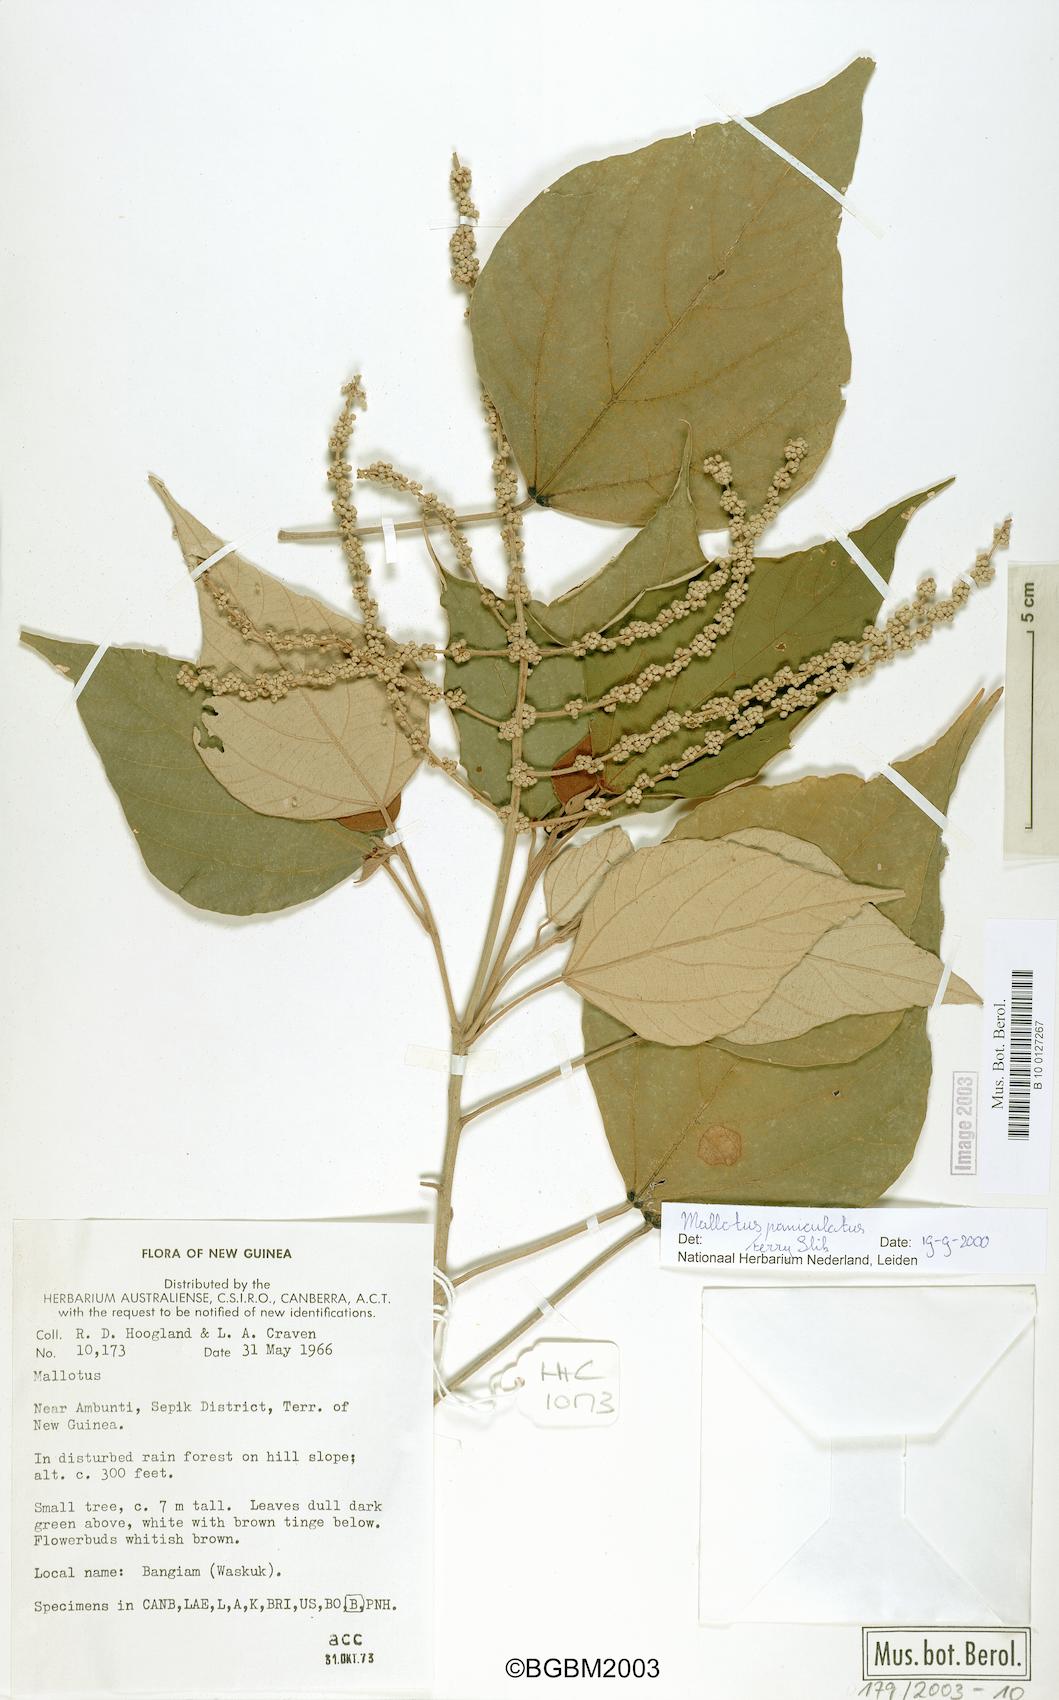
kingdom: Plantae
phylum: Tracheophyta
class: Magnoliopsida
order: Malpighiales
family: Euphorbiaceae
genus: Mallotus
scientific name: Mallotus paniculatus
